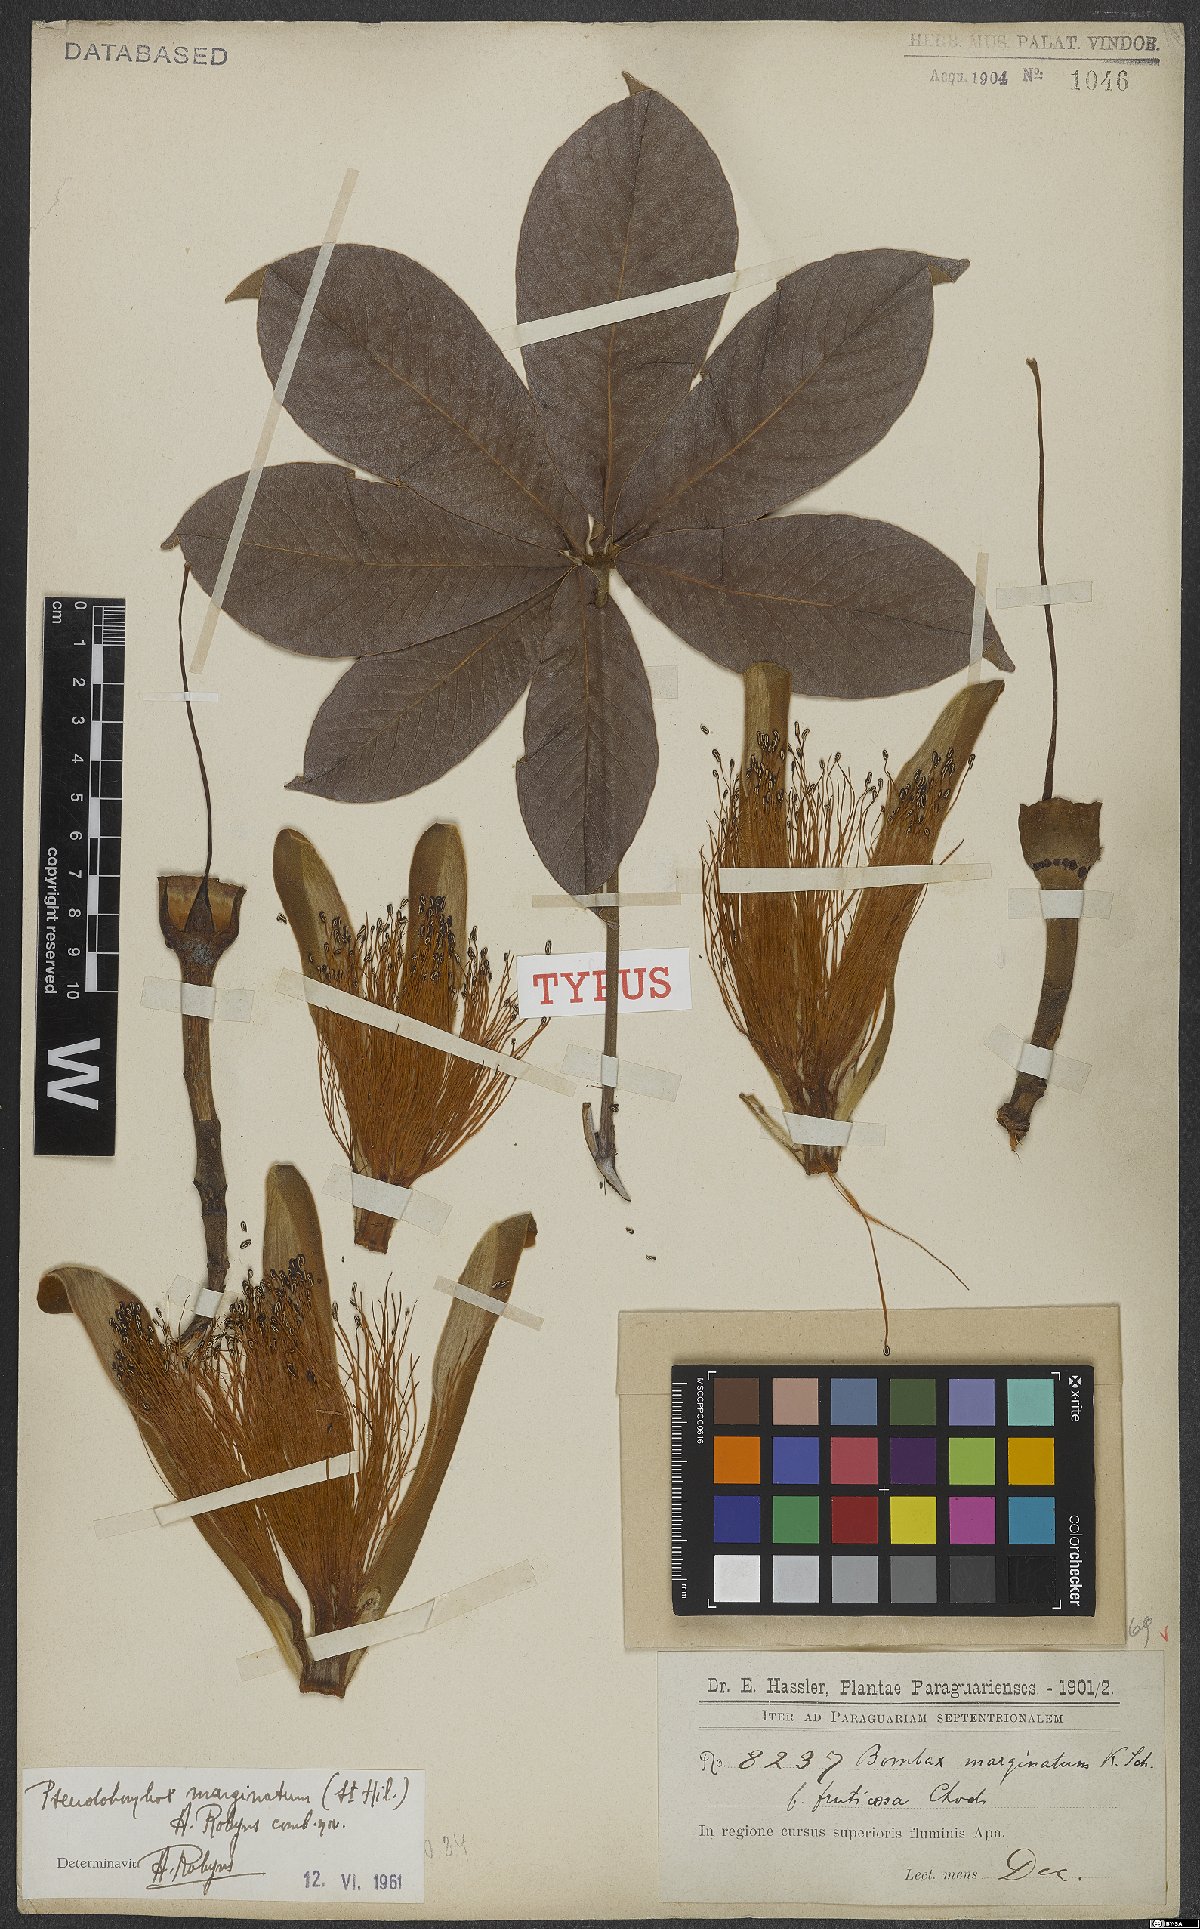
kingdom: Plantae
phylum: Tracheophyta
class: Magnoliopsida
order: Malvales
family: Malvaceae
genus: Pseudobombax
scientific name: Pseudobombax marginatum
